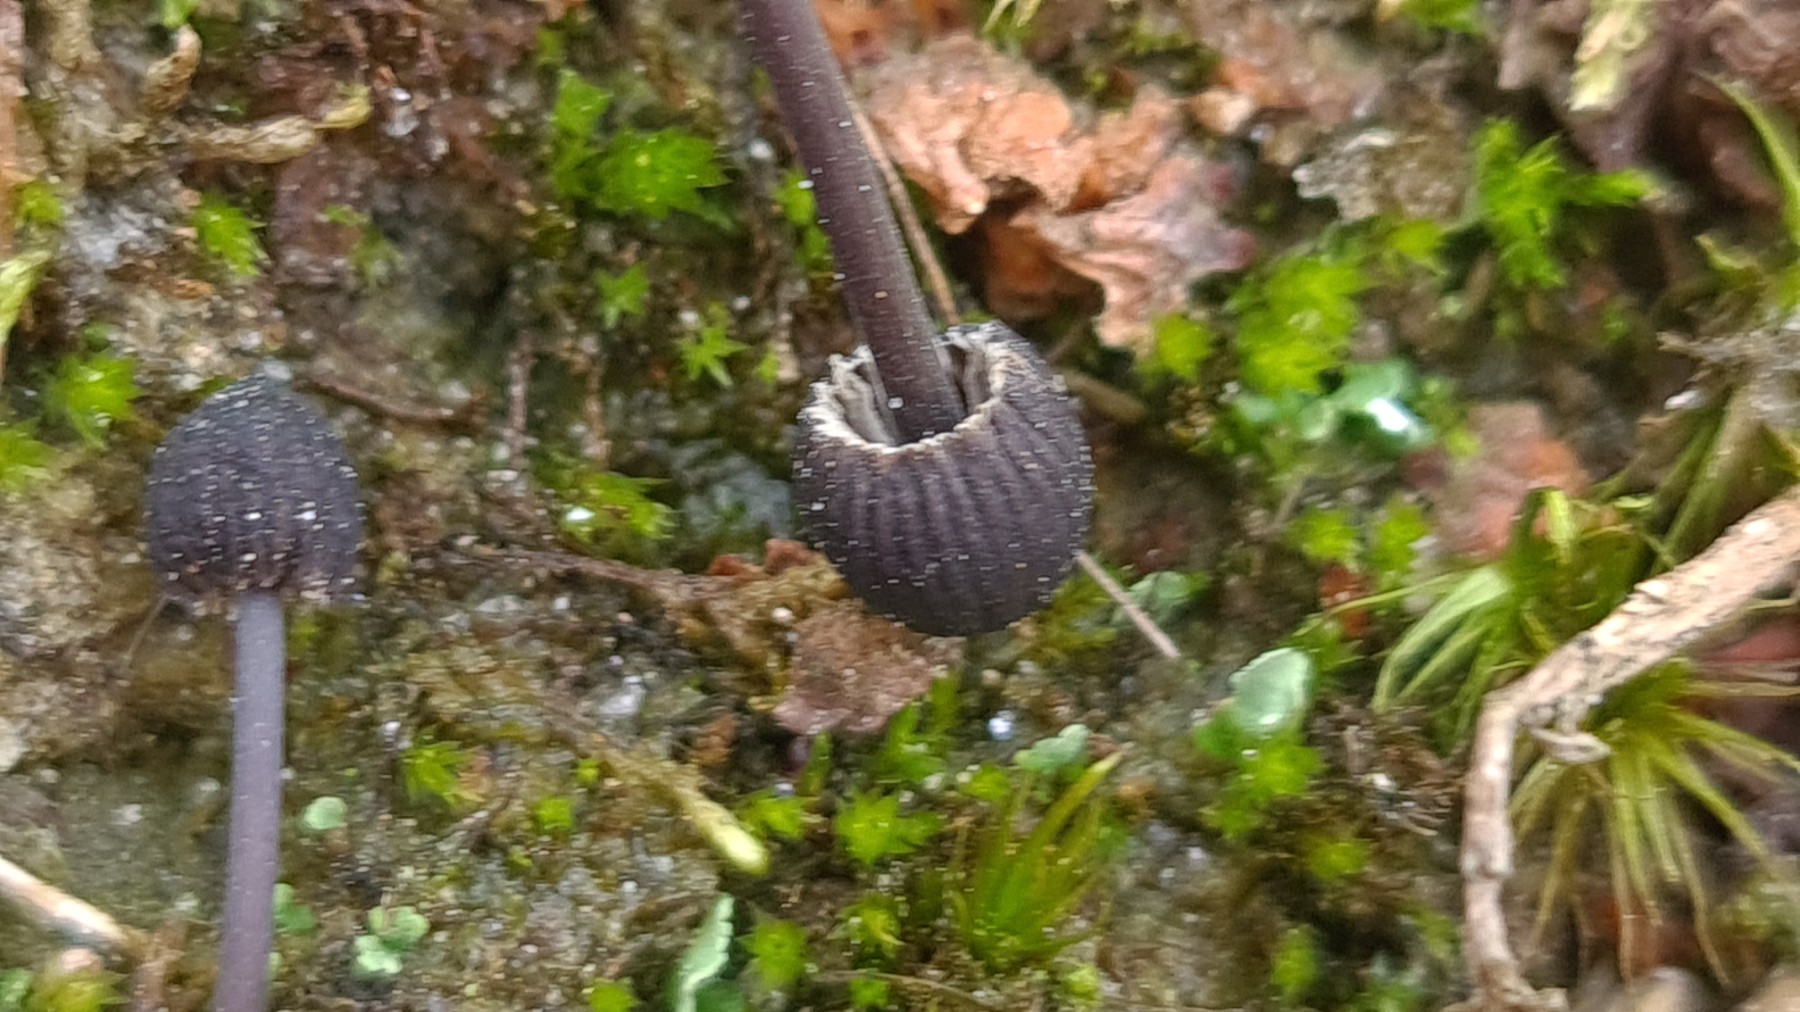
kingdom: Fungi
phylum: Basidiomycota
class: Agaricomycetes
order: Agaricales
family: Mycenaceae
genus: Mycena
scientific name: Mycena galopus
